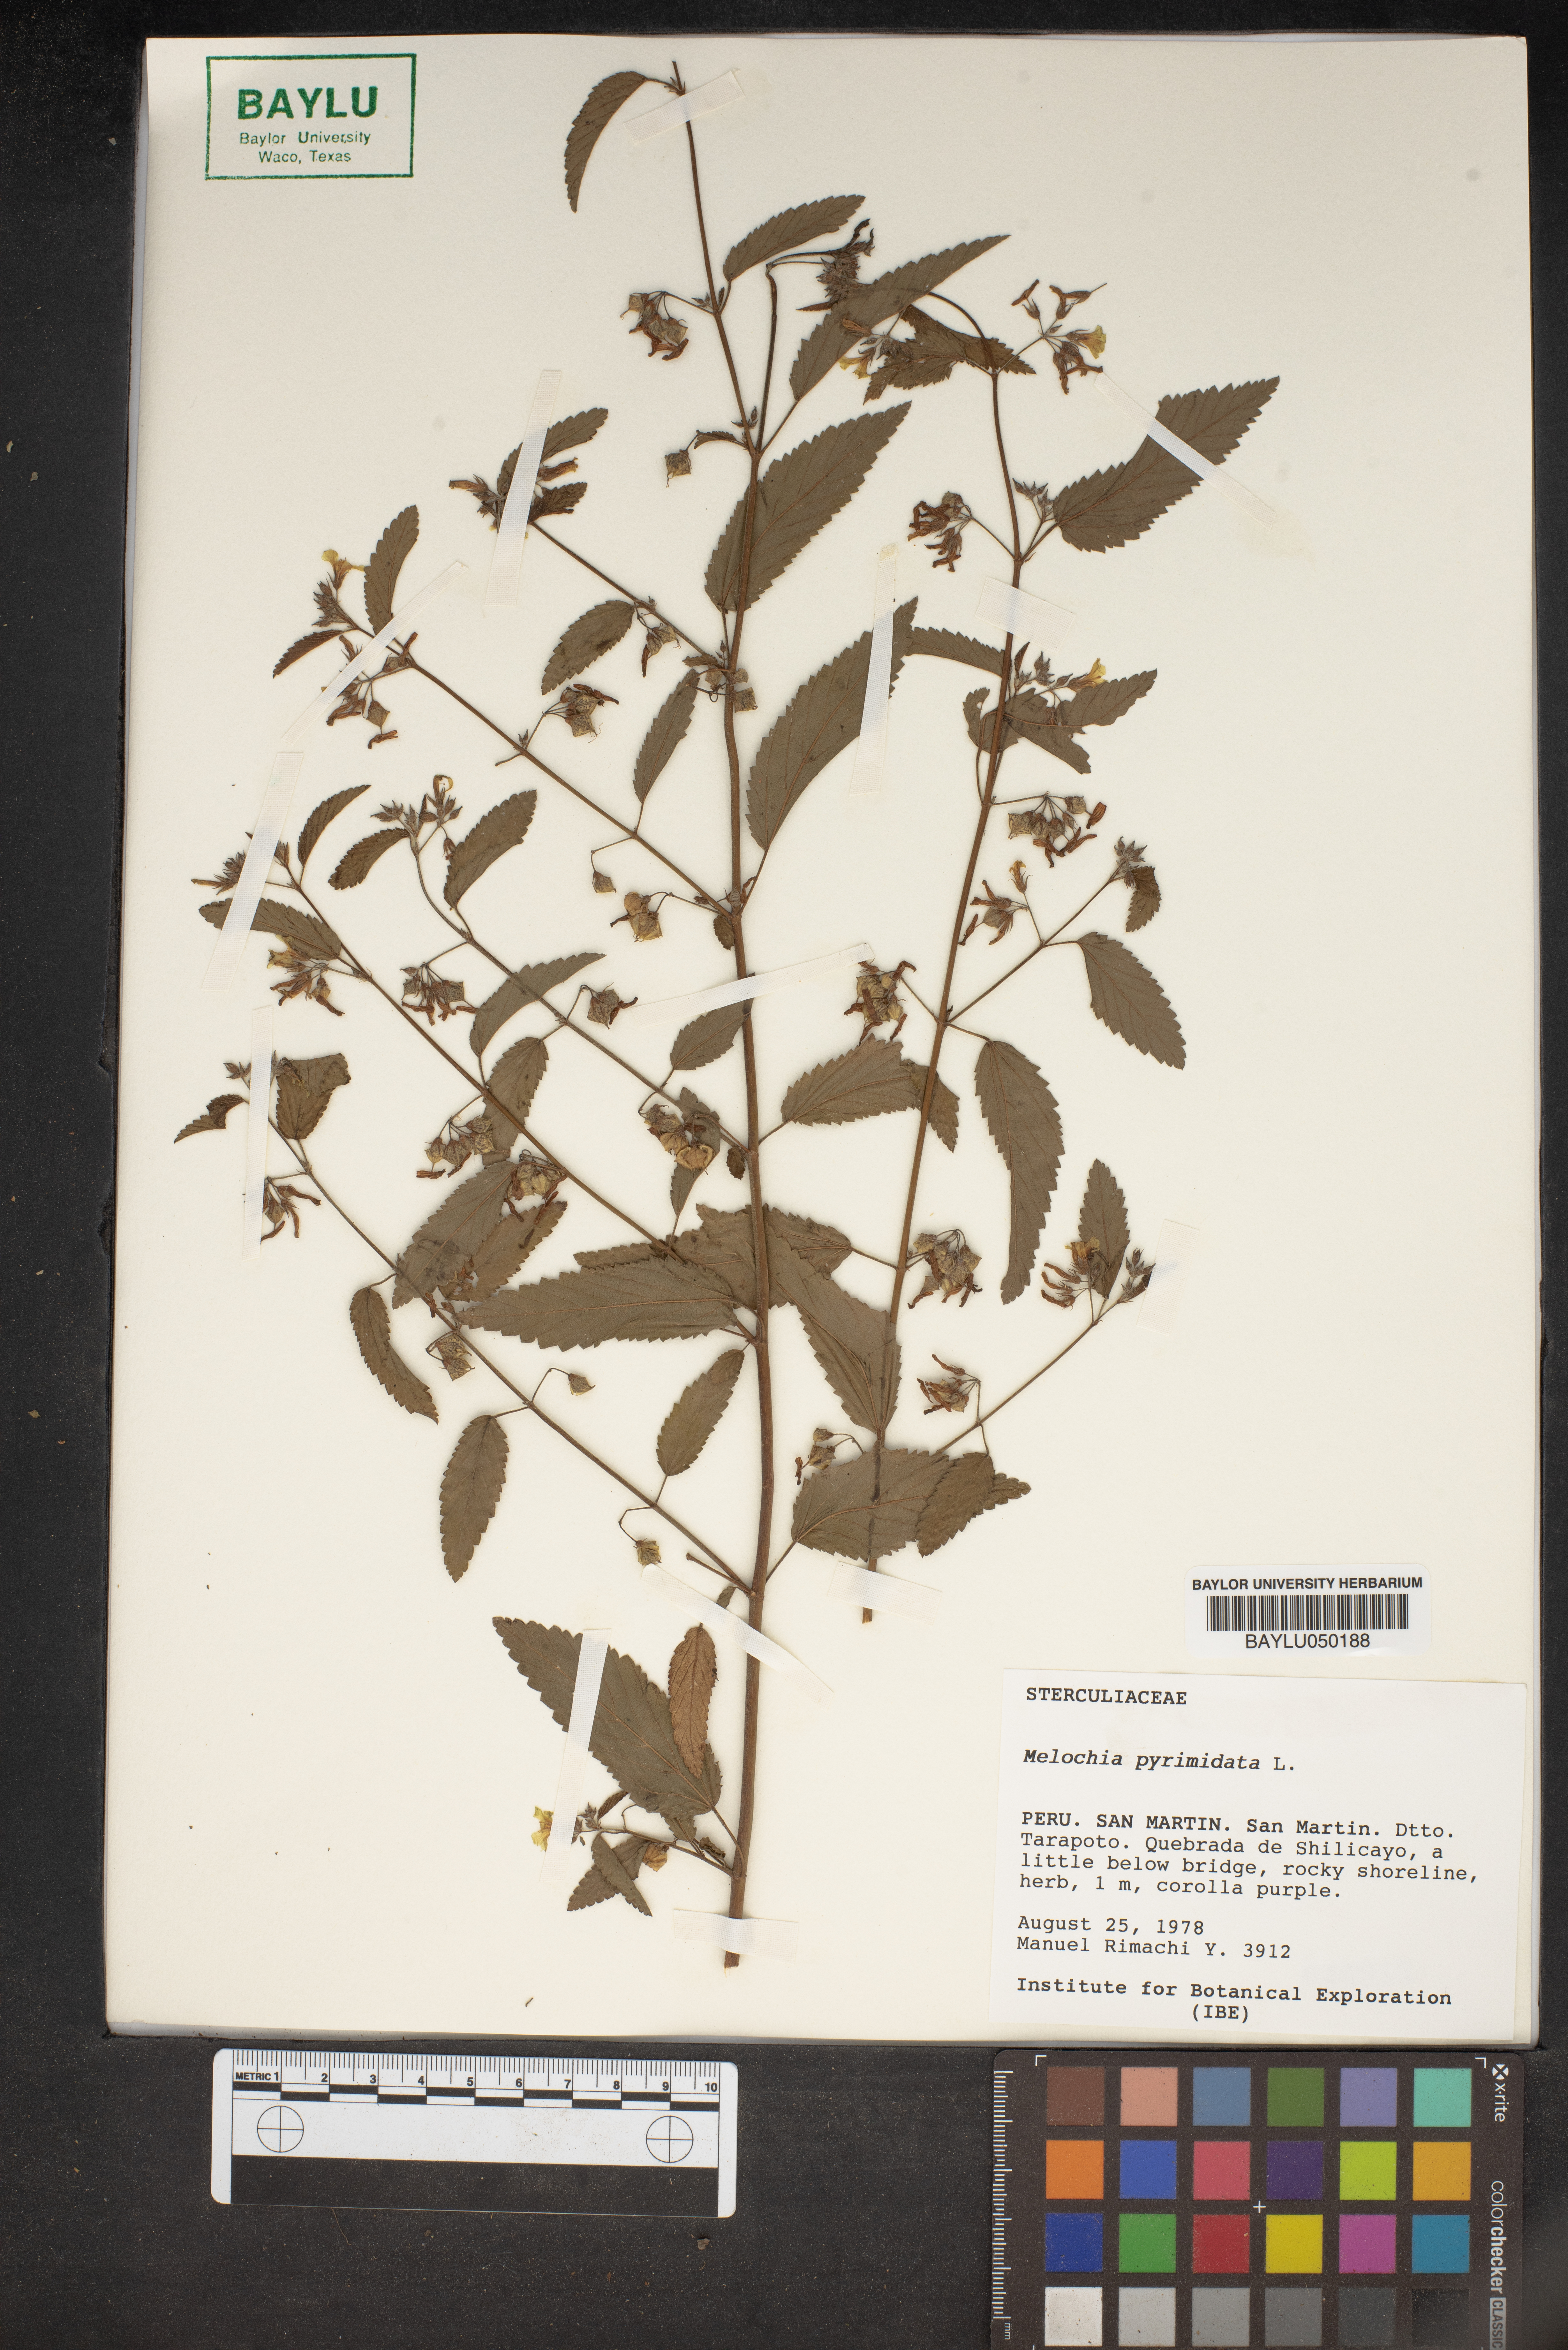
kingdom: Plantae
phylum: Tracheophyta
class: Magnoliopsida
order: Malvales
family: Malvaceae
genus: Melochia
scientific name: Melochia pyramidata
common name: Pyramidflower
